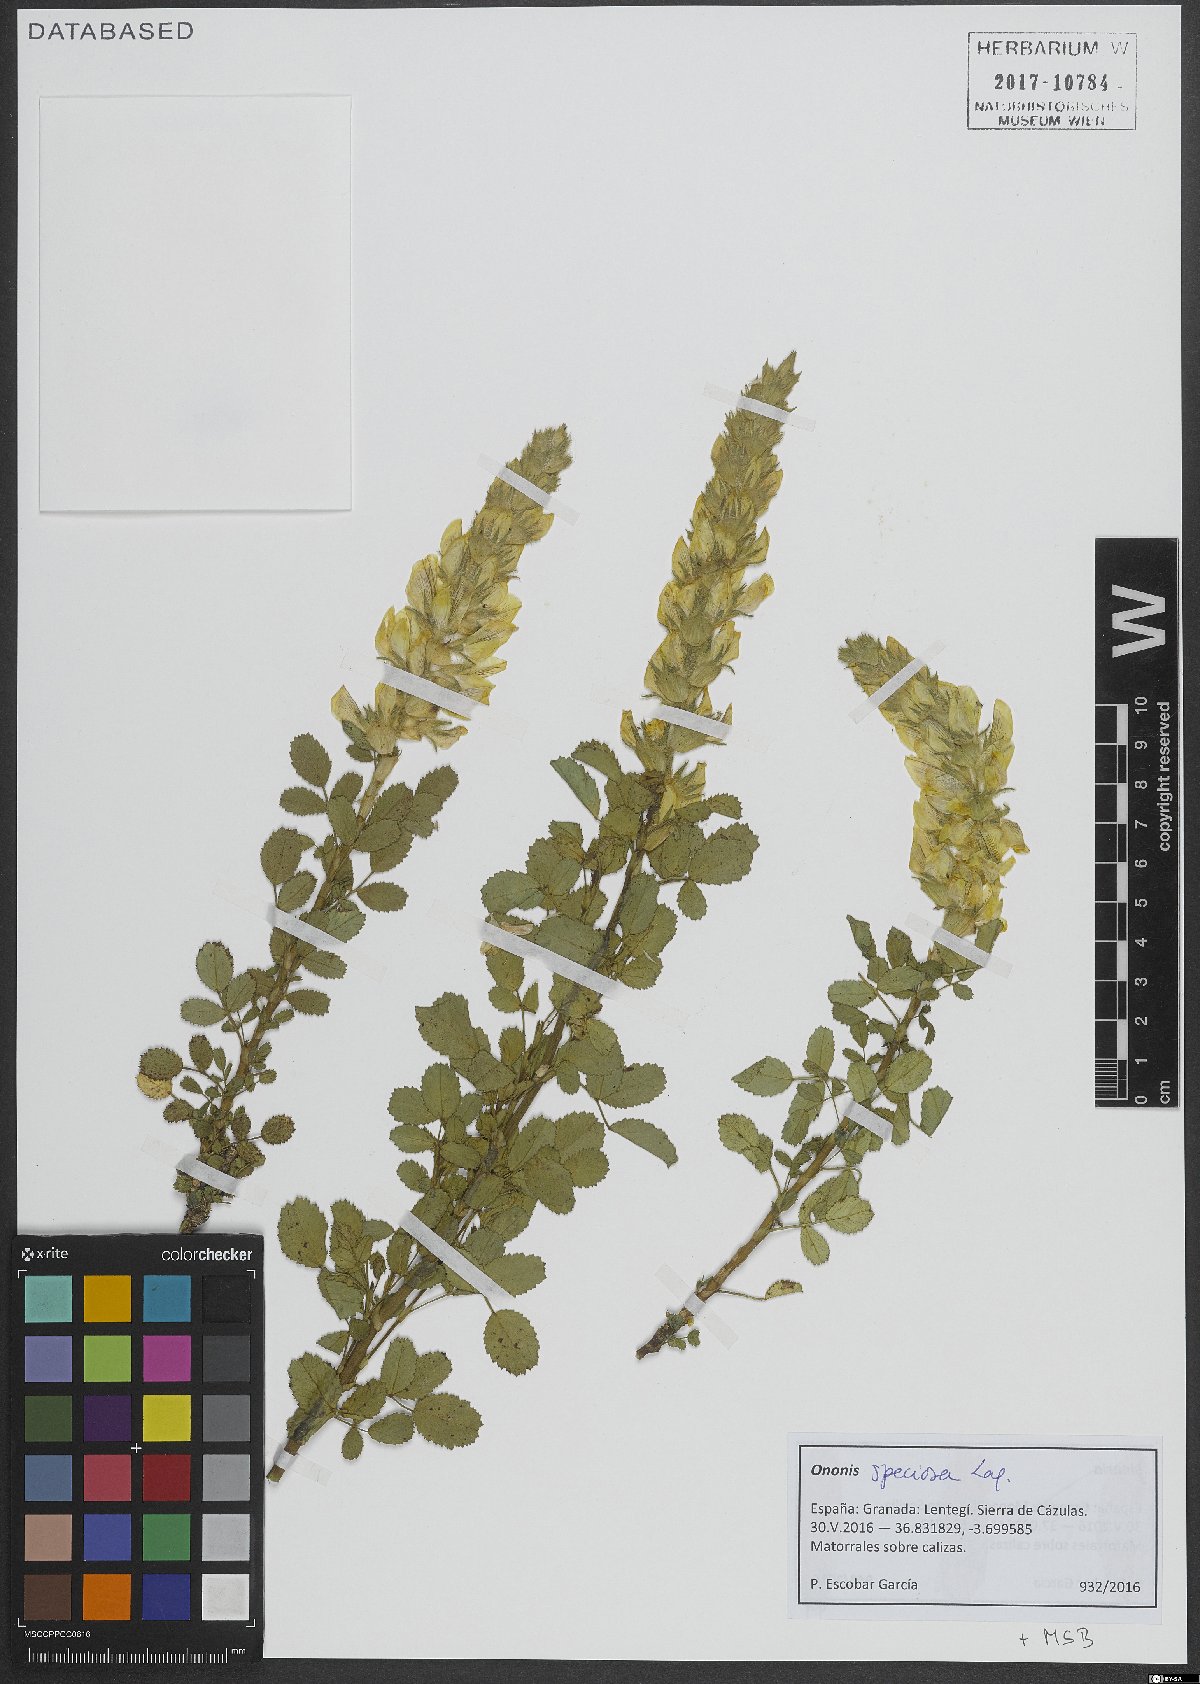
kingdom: Plantae
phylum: Tracheophyta
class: Magnoliopsida
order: Fabales
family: Fabaceae
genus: Ononis
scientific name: Ononis speciosa
